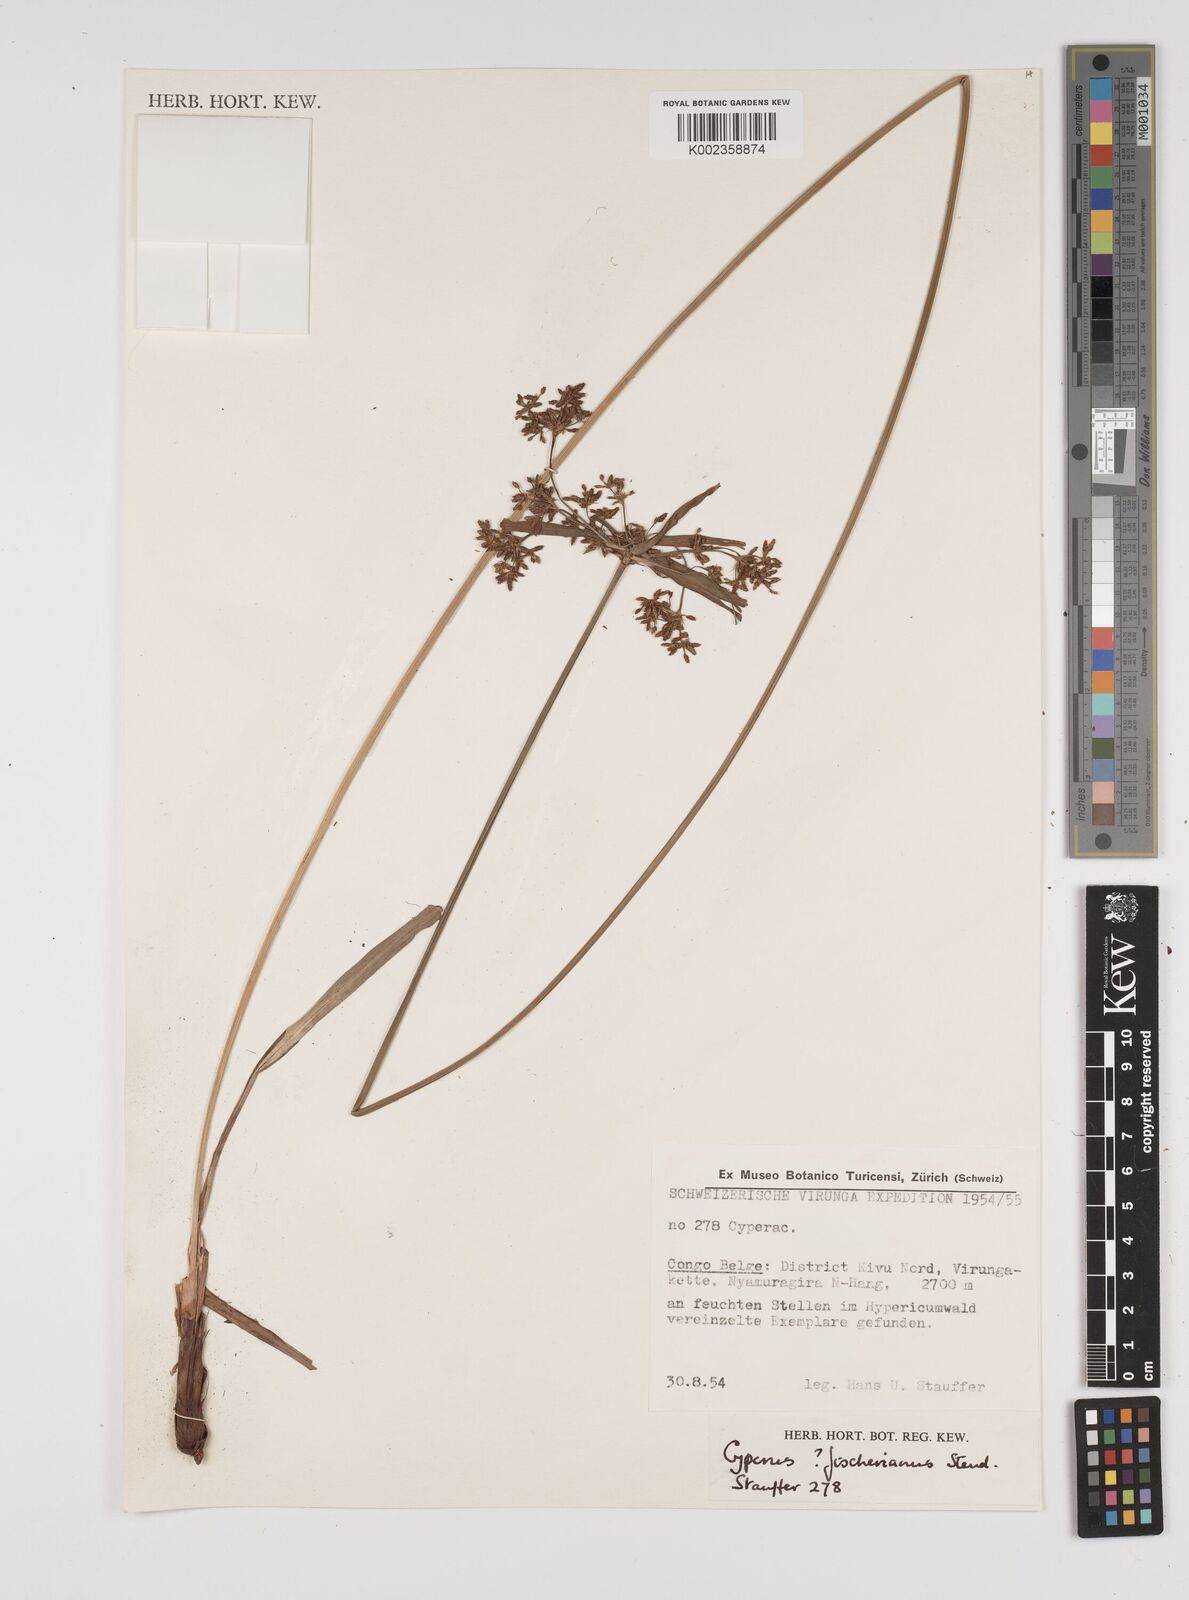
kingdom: Plantae
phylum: Tracheophyta
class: Liliopsida
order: Poales
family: Cyperaceae
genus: Cyperus
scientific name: Cyperus fischerianus
